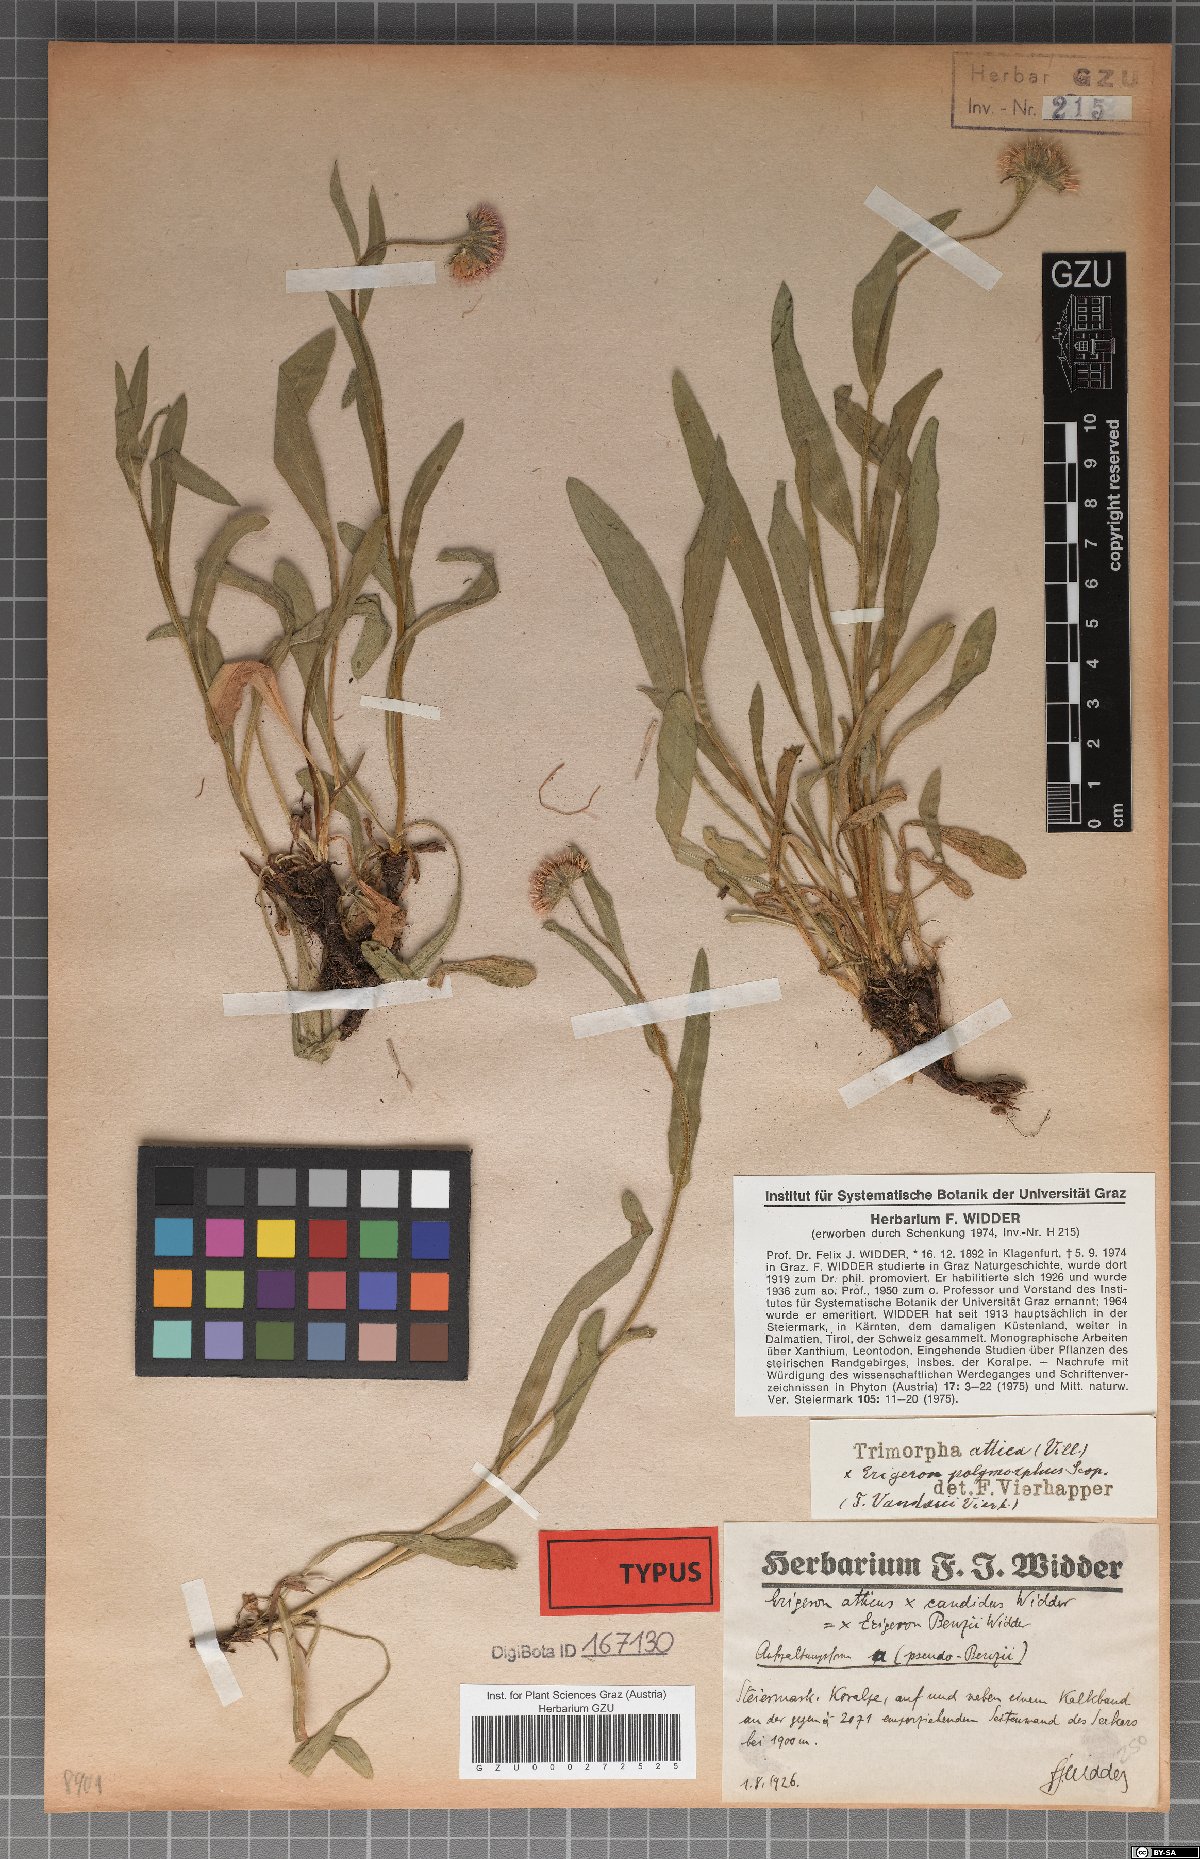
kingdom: Plantae
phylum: Tracheophyta
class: Magnoliopsida
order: Asterales
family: Asteraceae
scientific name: Asteraceae
